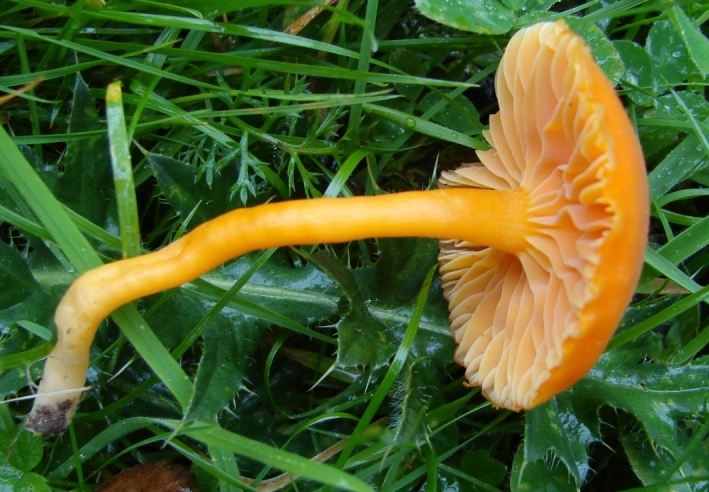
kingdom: Fungi
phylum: Basidiomycota
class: Agaricomycetes
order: Agaricales
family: Hygrophoraceae
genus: Hygrocybe
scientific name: Hygrocybe reidii
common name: honning-vokshat
